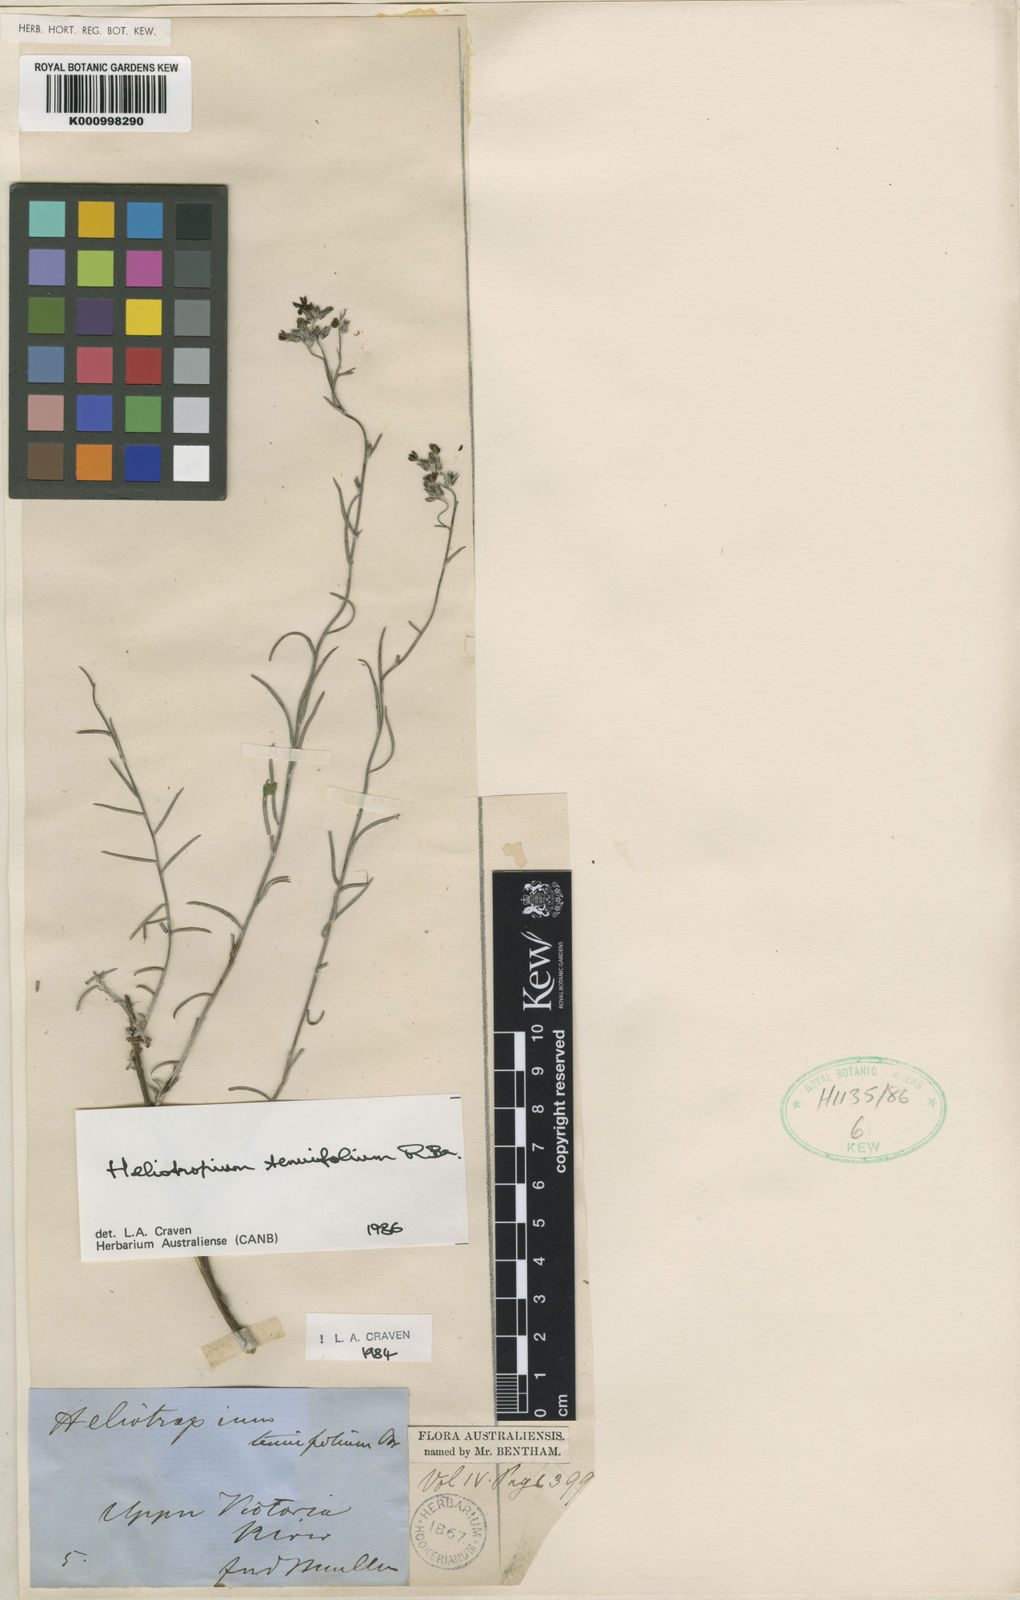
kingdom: Plantae
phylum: Tracheophyta
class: Magnoliopsida
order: Boraginales
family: Heliotropiaceae
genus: Euploca
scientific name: Euploca tenuifolia
